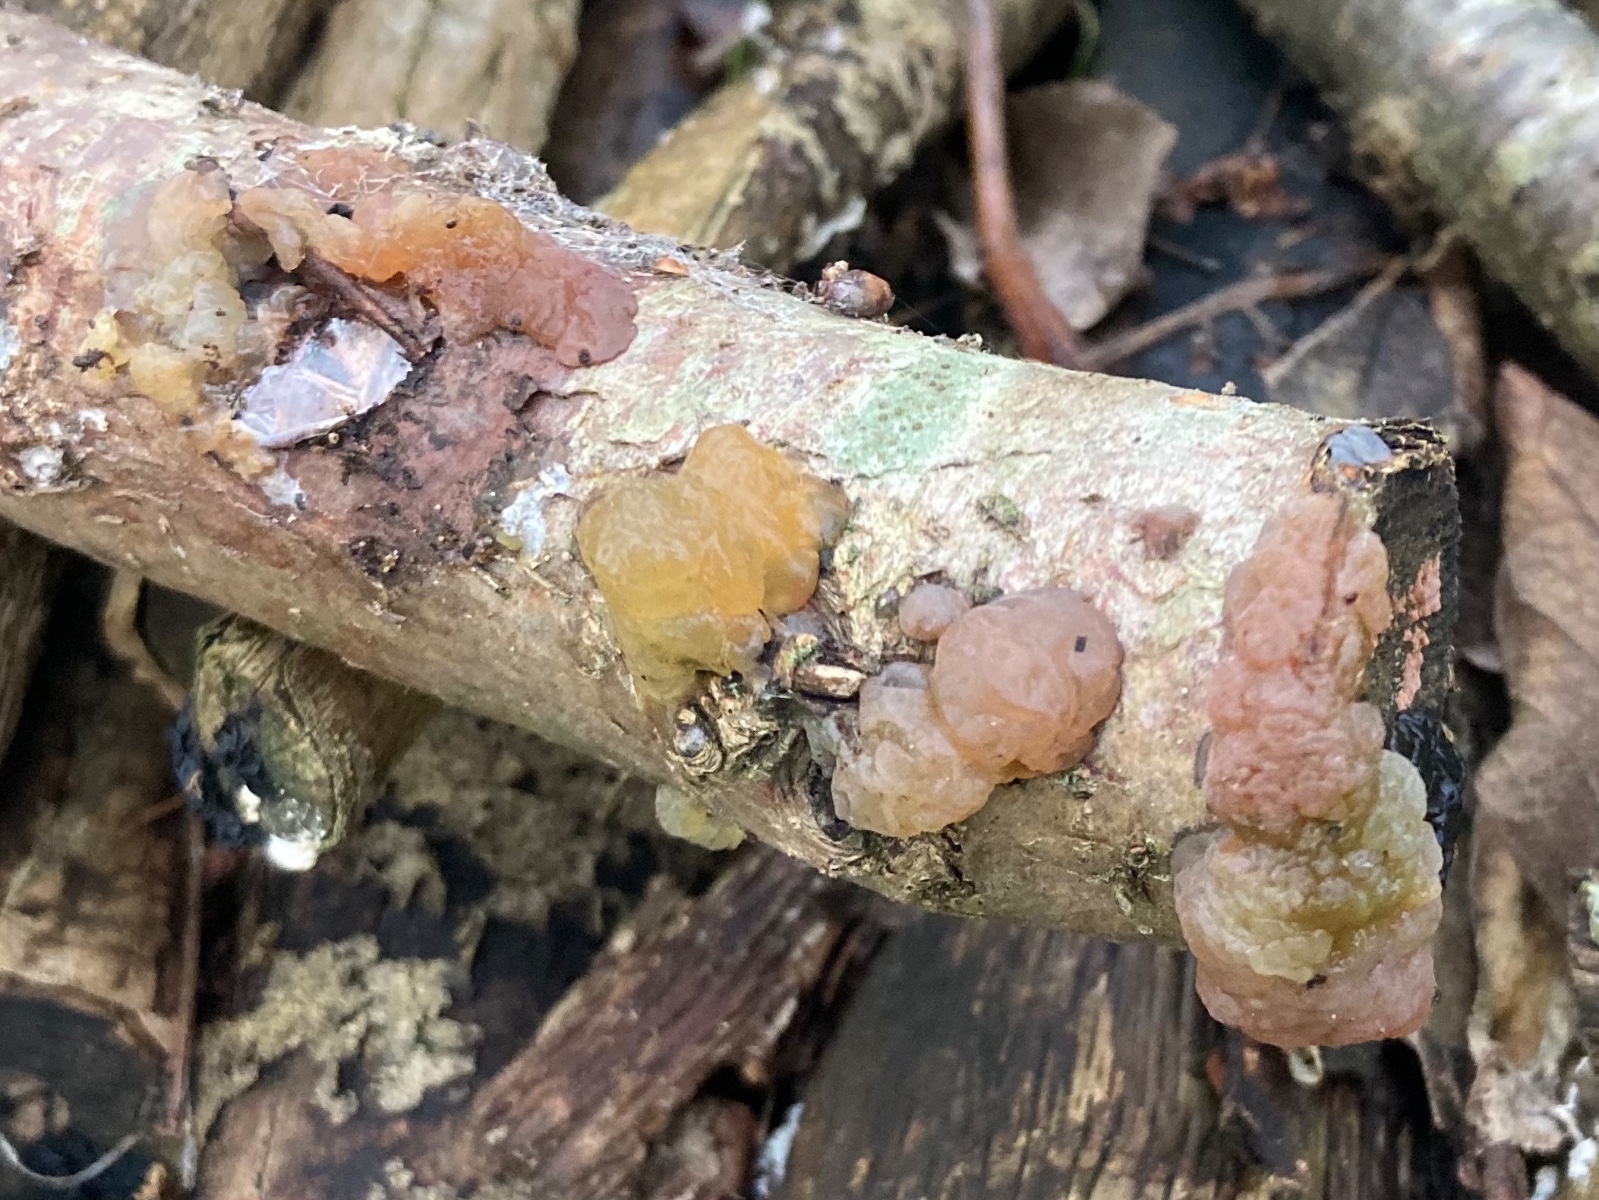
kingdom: Fungi
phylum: Basidiomycota
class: Agaricomycetes
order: Auriculariales
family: Hyaloriaceae
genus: Myxarium
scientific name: Myxarium hyalinum
